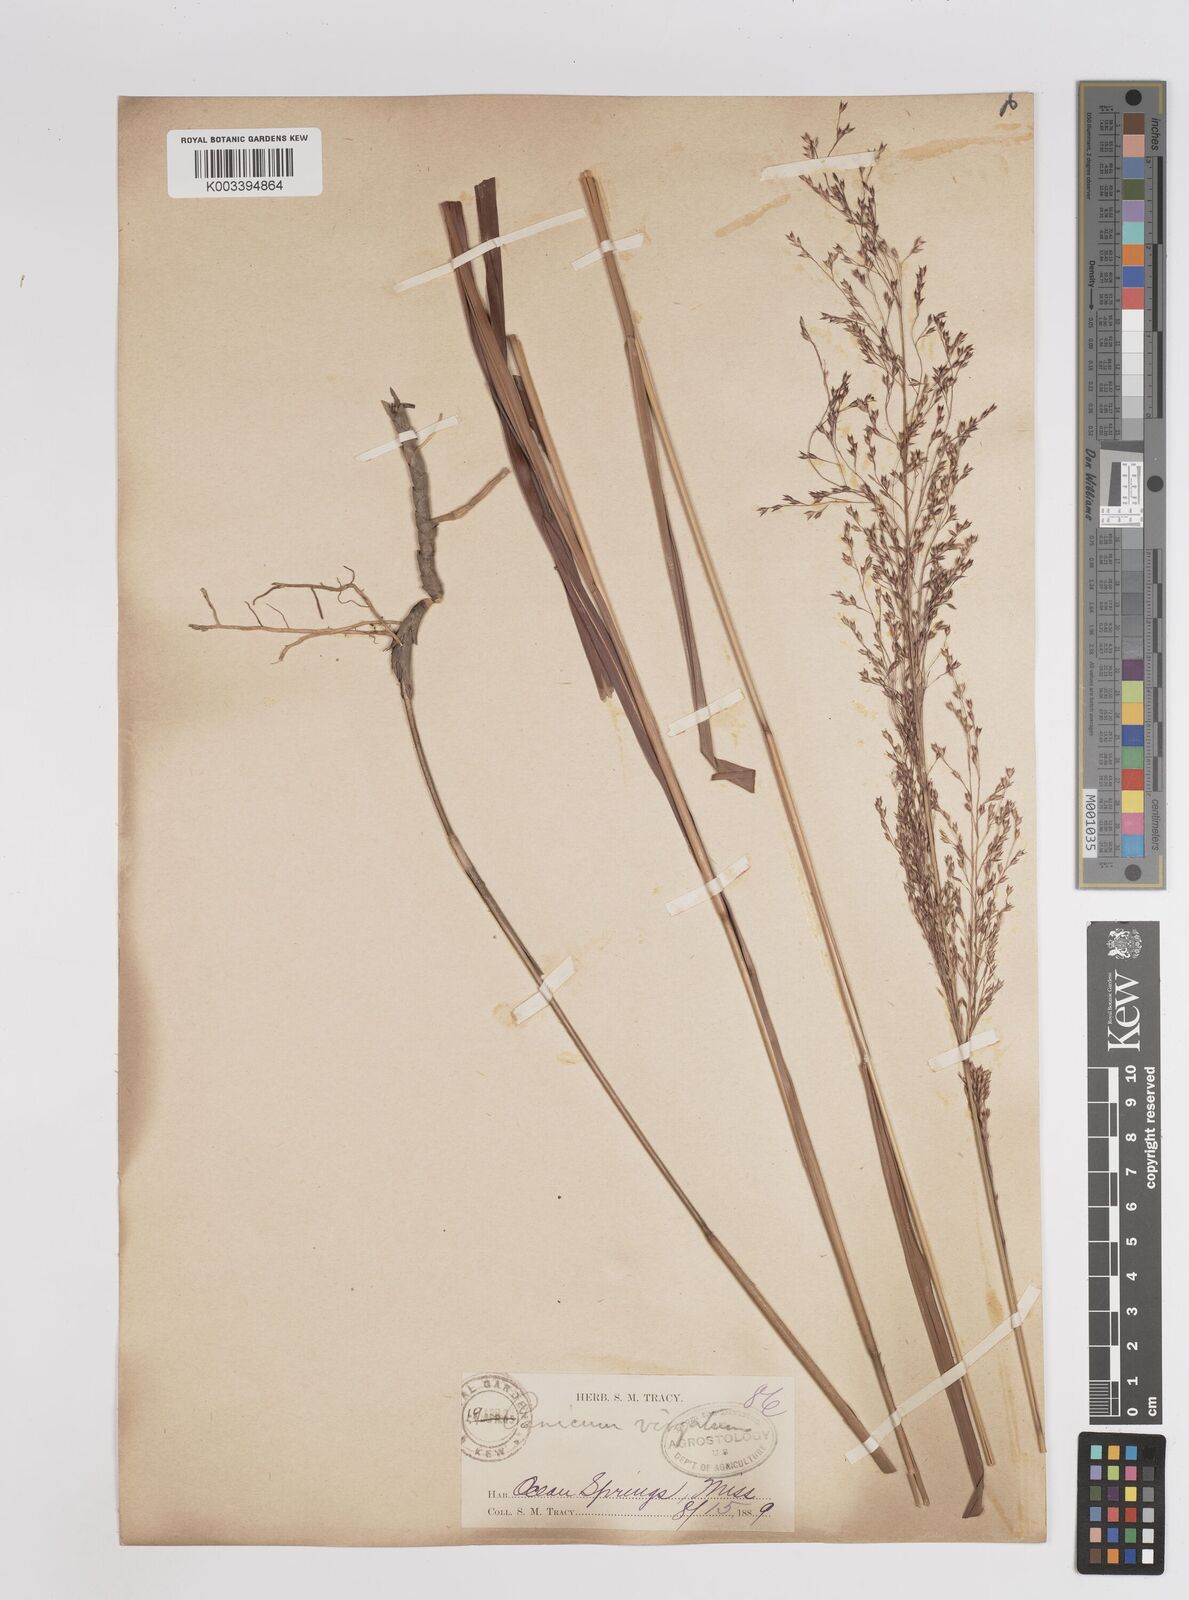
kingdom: Plantae
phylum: Tracheophyta
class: Liliopsida
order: Poales
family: Poaceae
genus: Panicum
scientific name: Panicum virgatum
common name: Switchgrass
